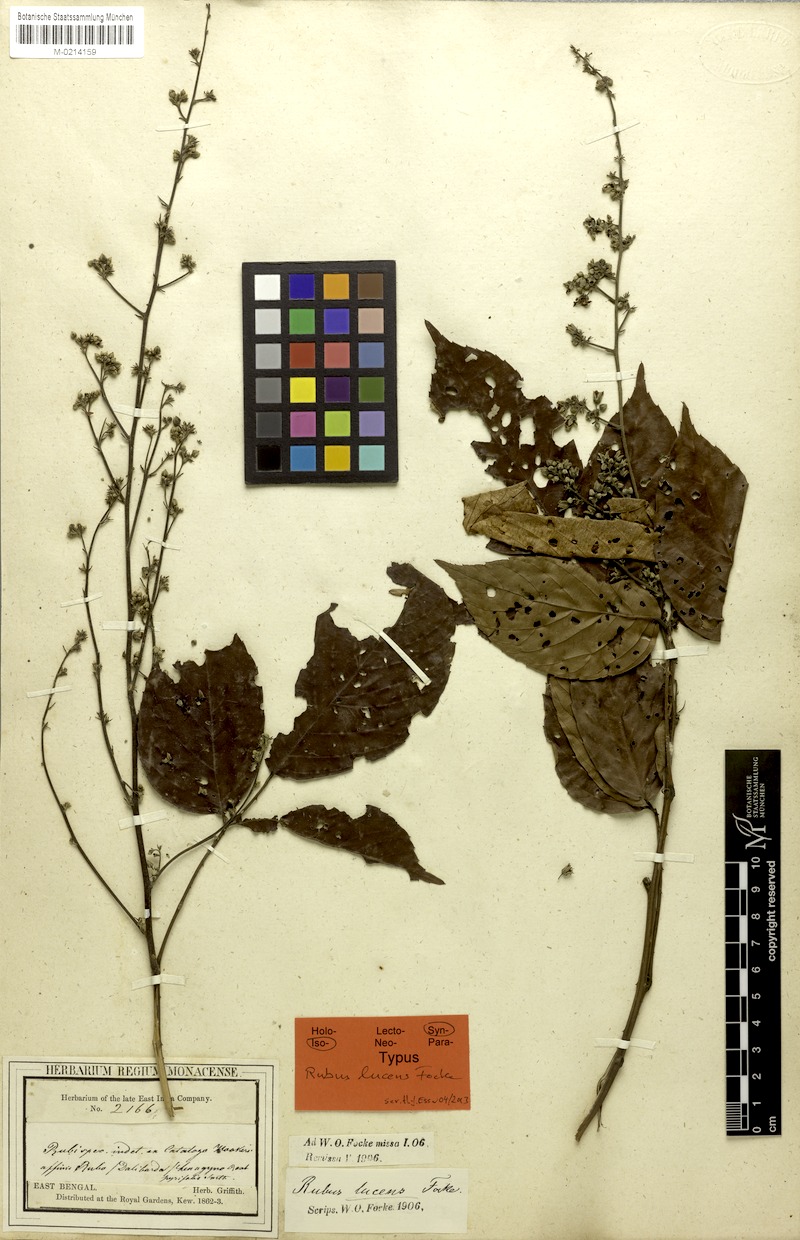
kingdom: Plantae
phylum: Tracheophyta
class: Magnoliopsida
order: Rosales
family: Rosaceae
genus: Rubus
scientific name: Rubus lucens
